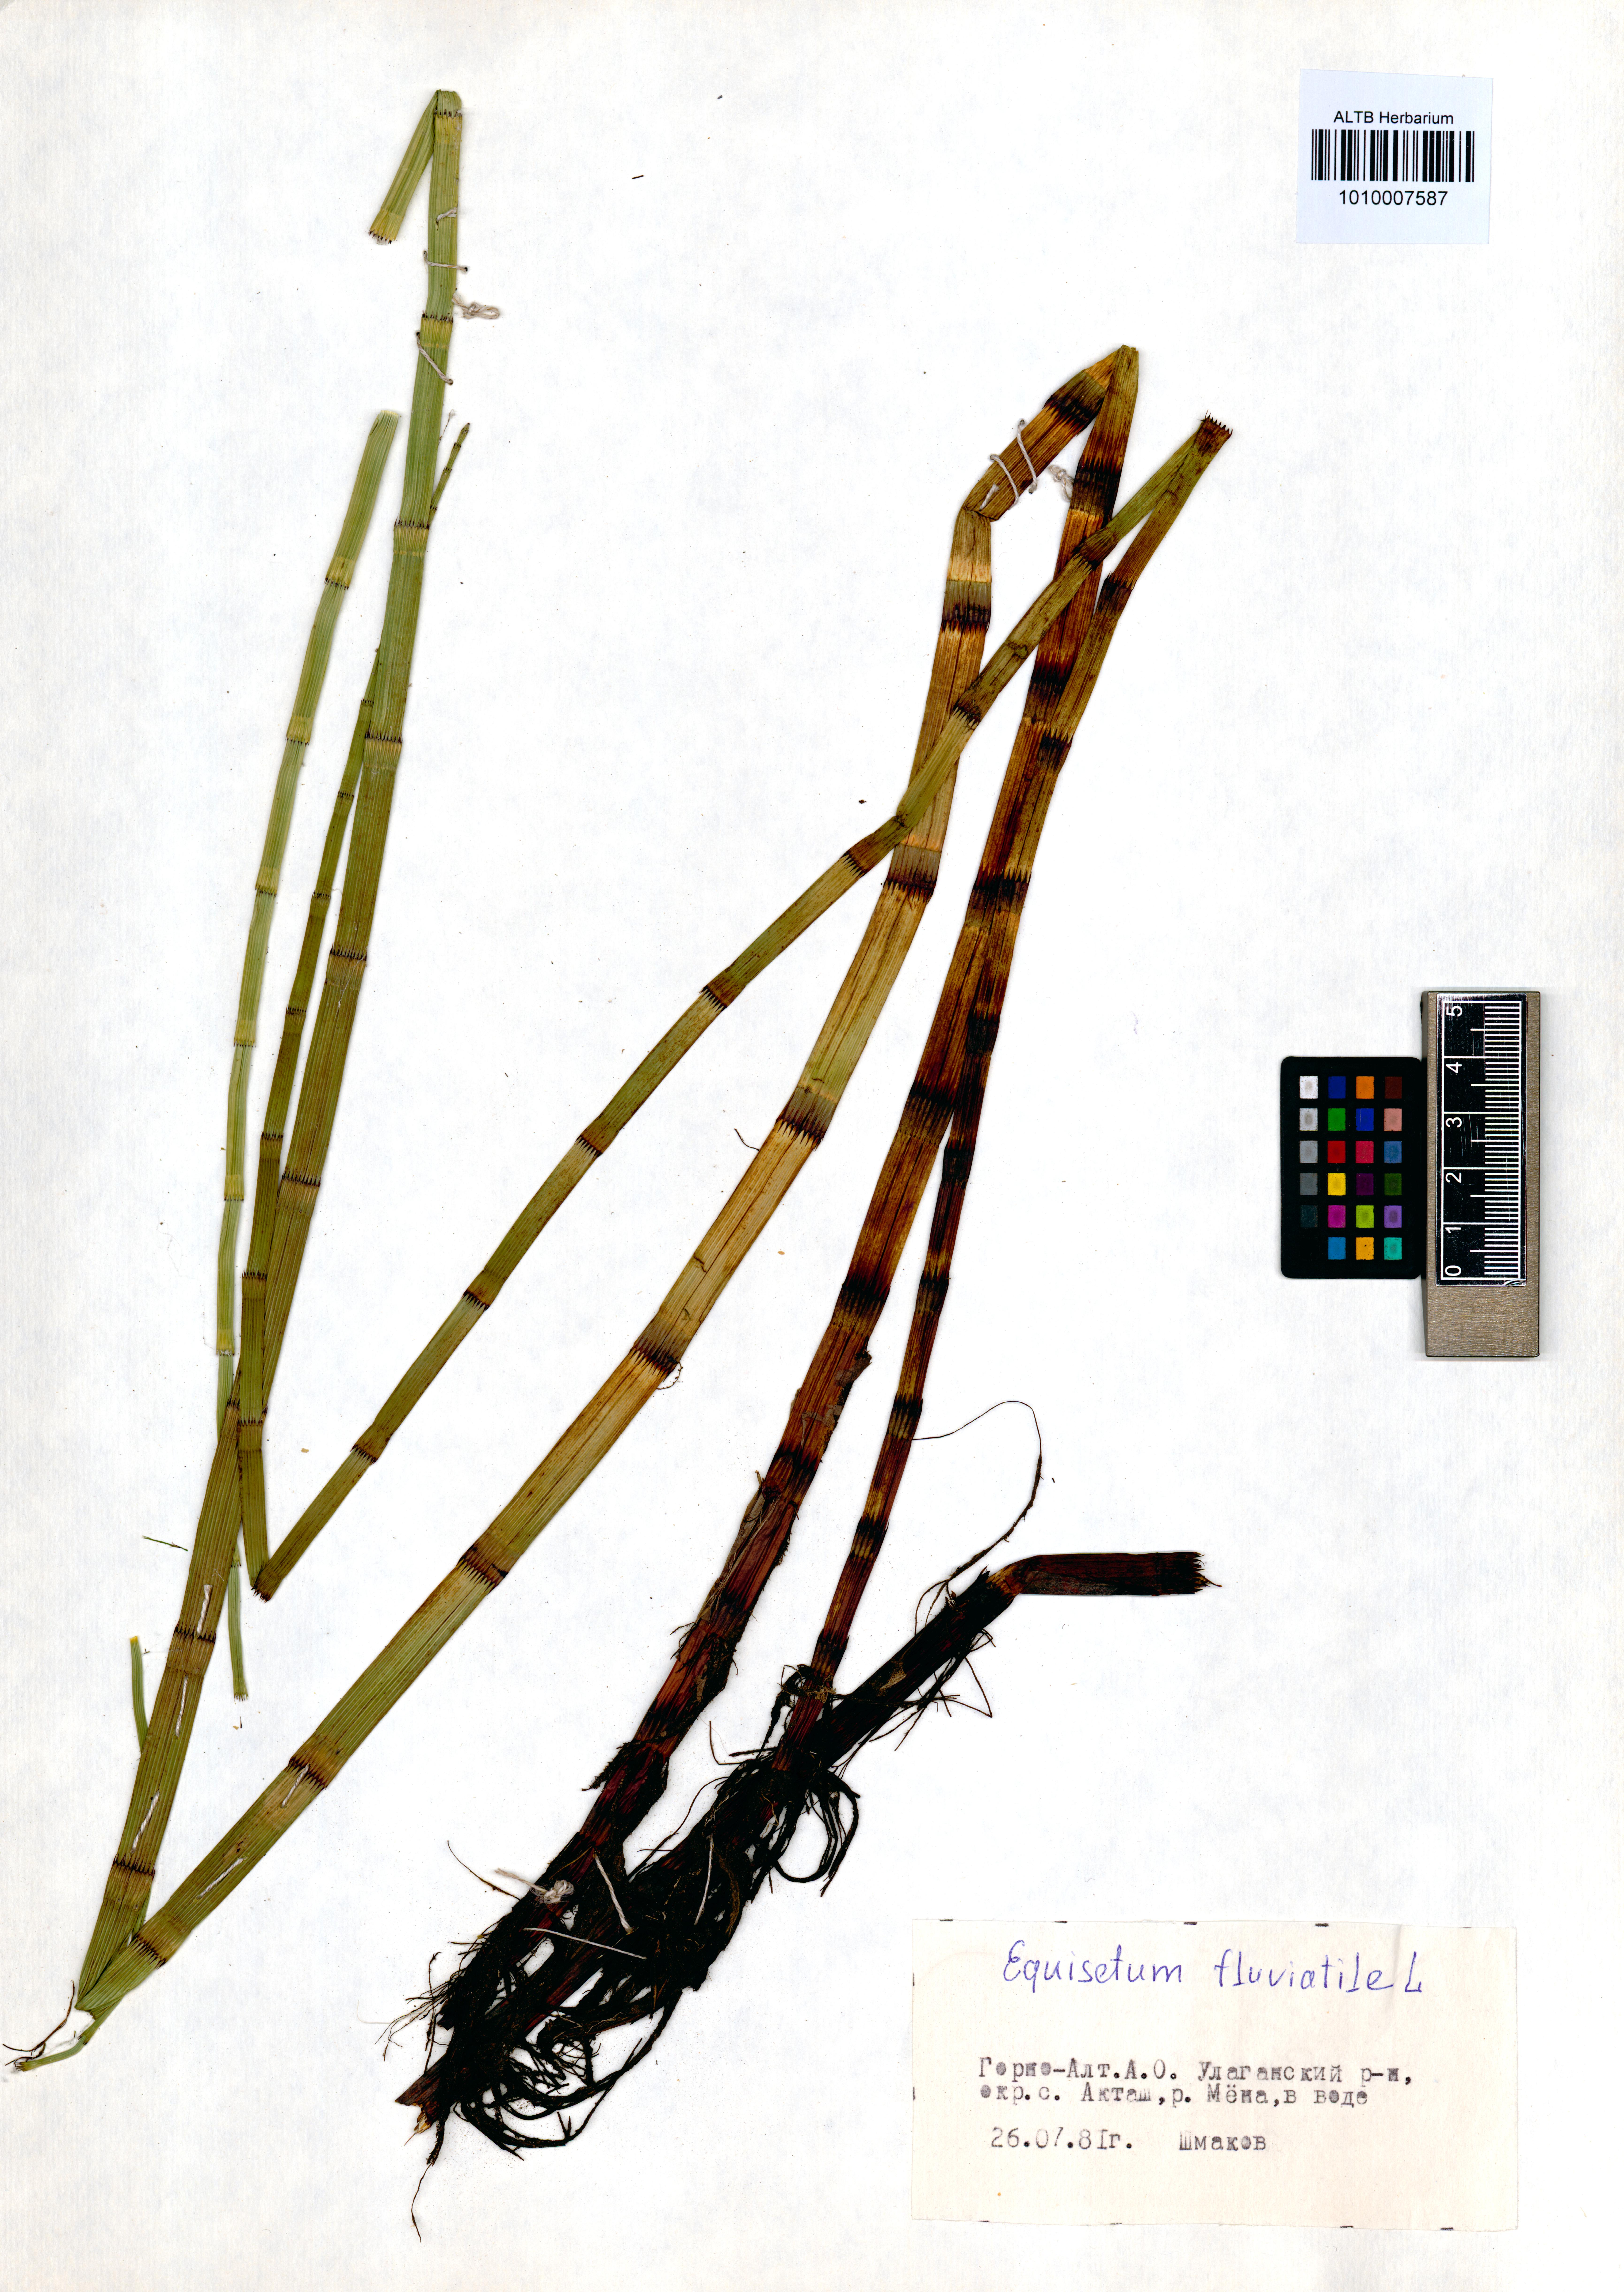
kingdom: Plantae
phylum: Tracheophyta
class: Polypodiopsida
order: Equisetales
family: Equisetaceae
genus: Equisetum
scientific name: Equisetum fluviatile
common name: Water horsetail
